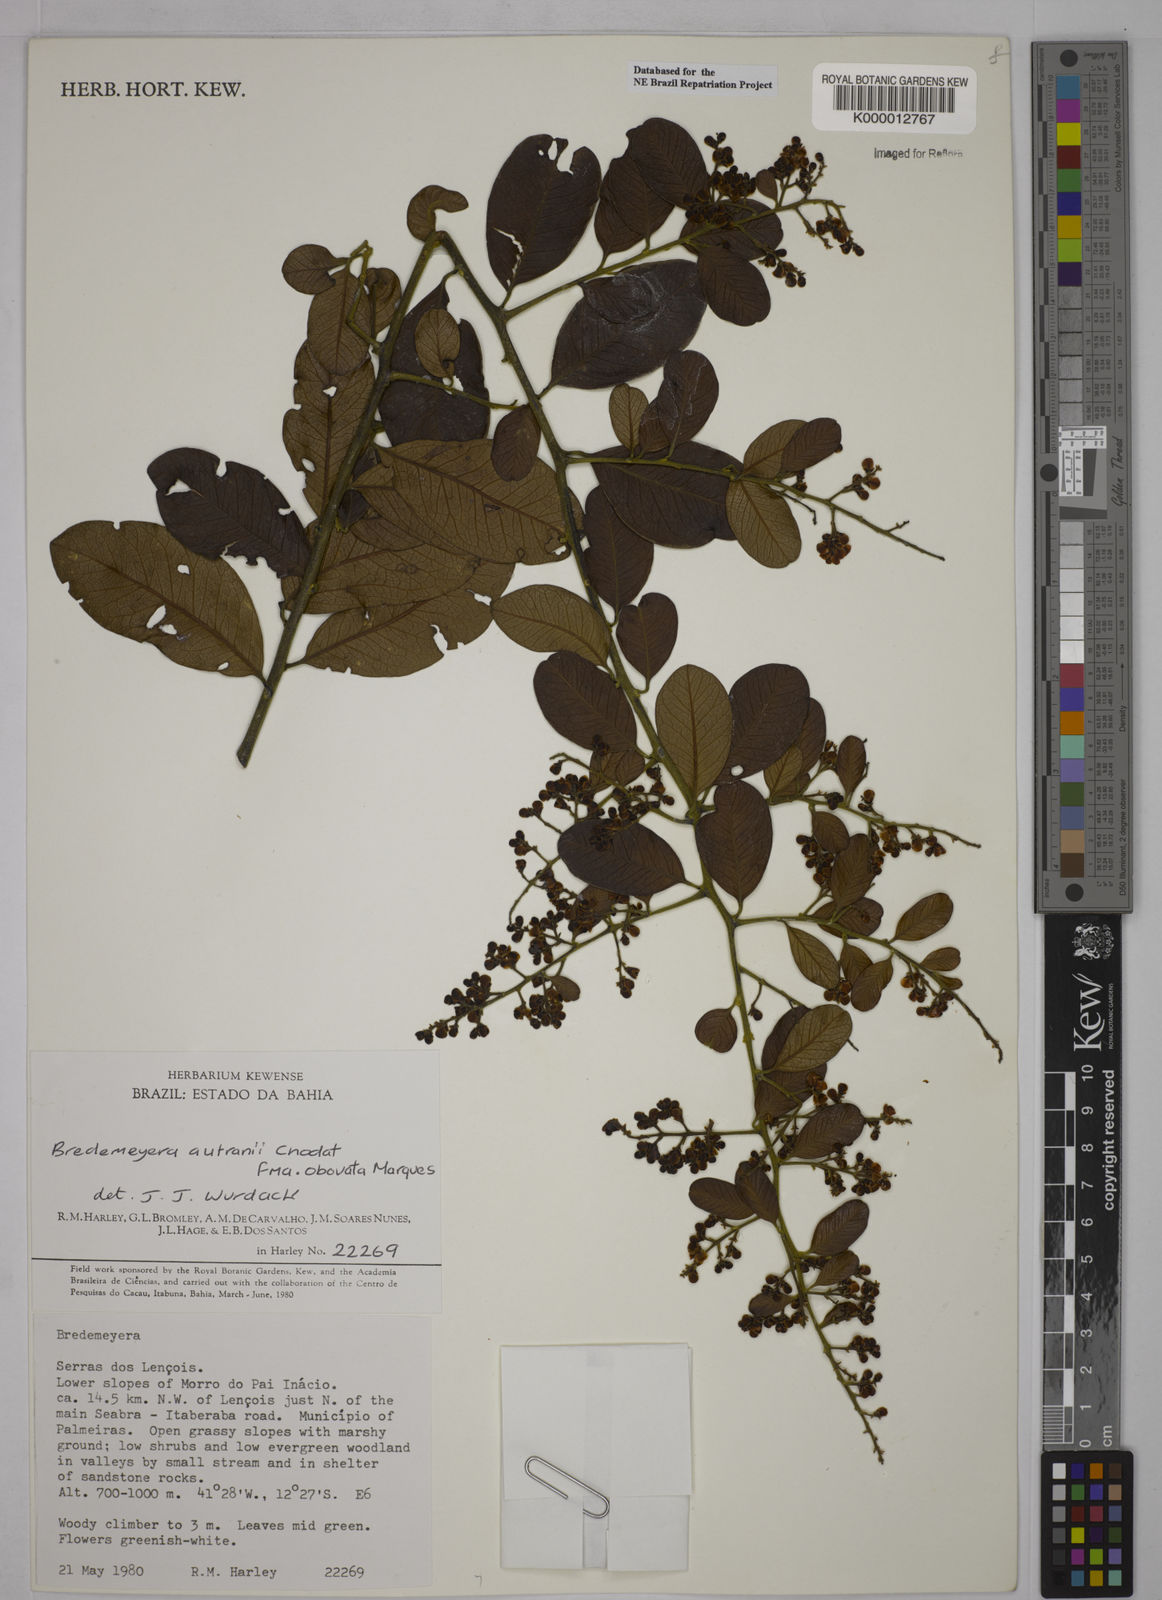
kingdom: Plantae
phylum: Tracheophyta
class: Magnoliopsida
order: Fabales
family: Polygalaceae
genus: Bredemeyera
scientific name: Bredemeyera disperma
